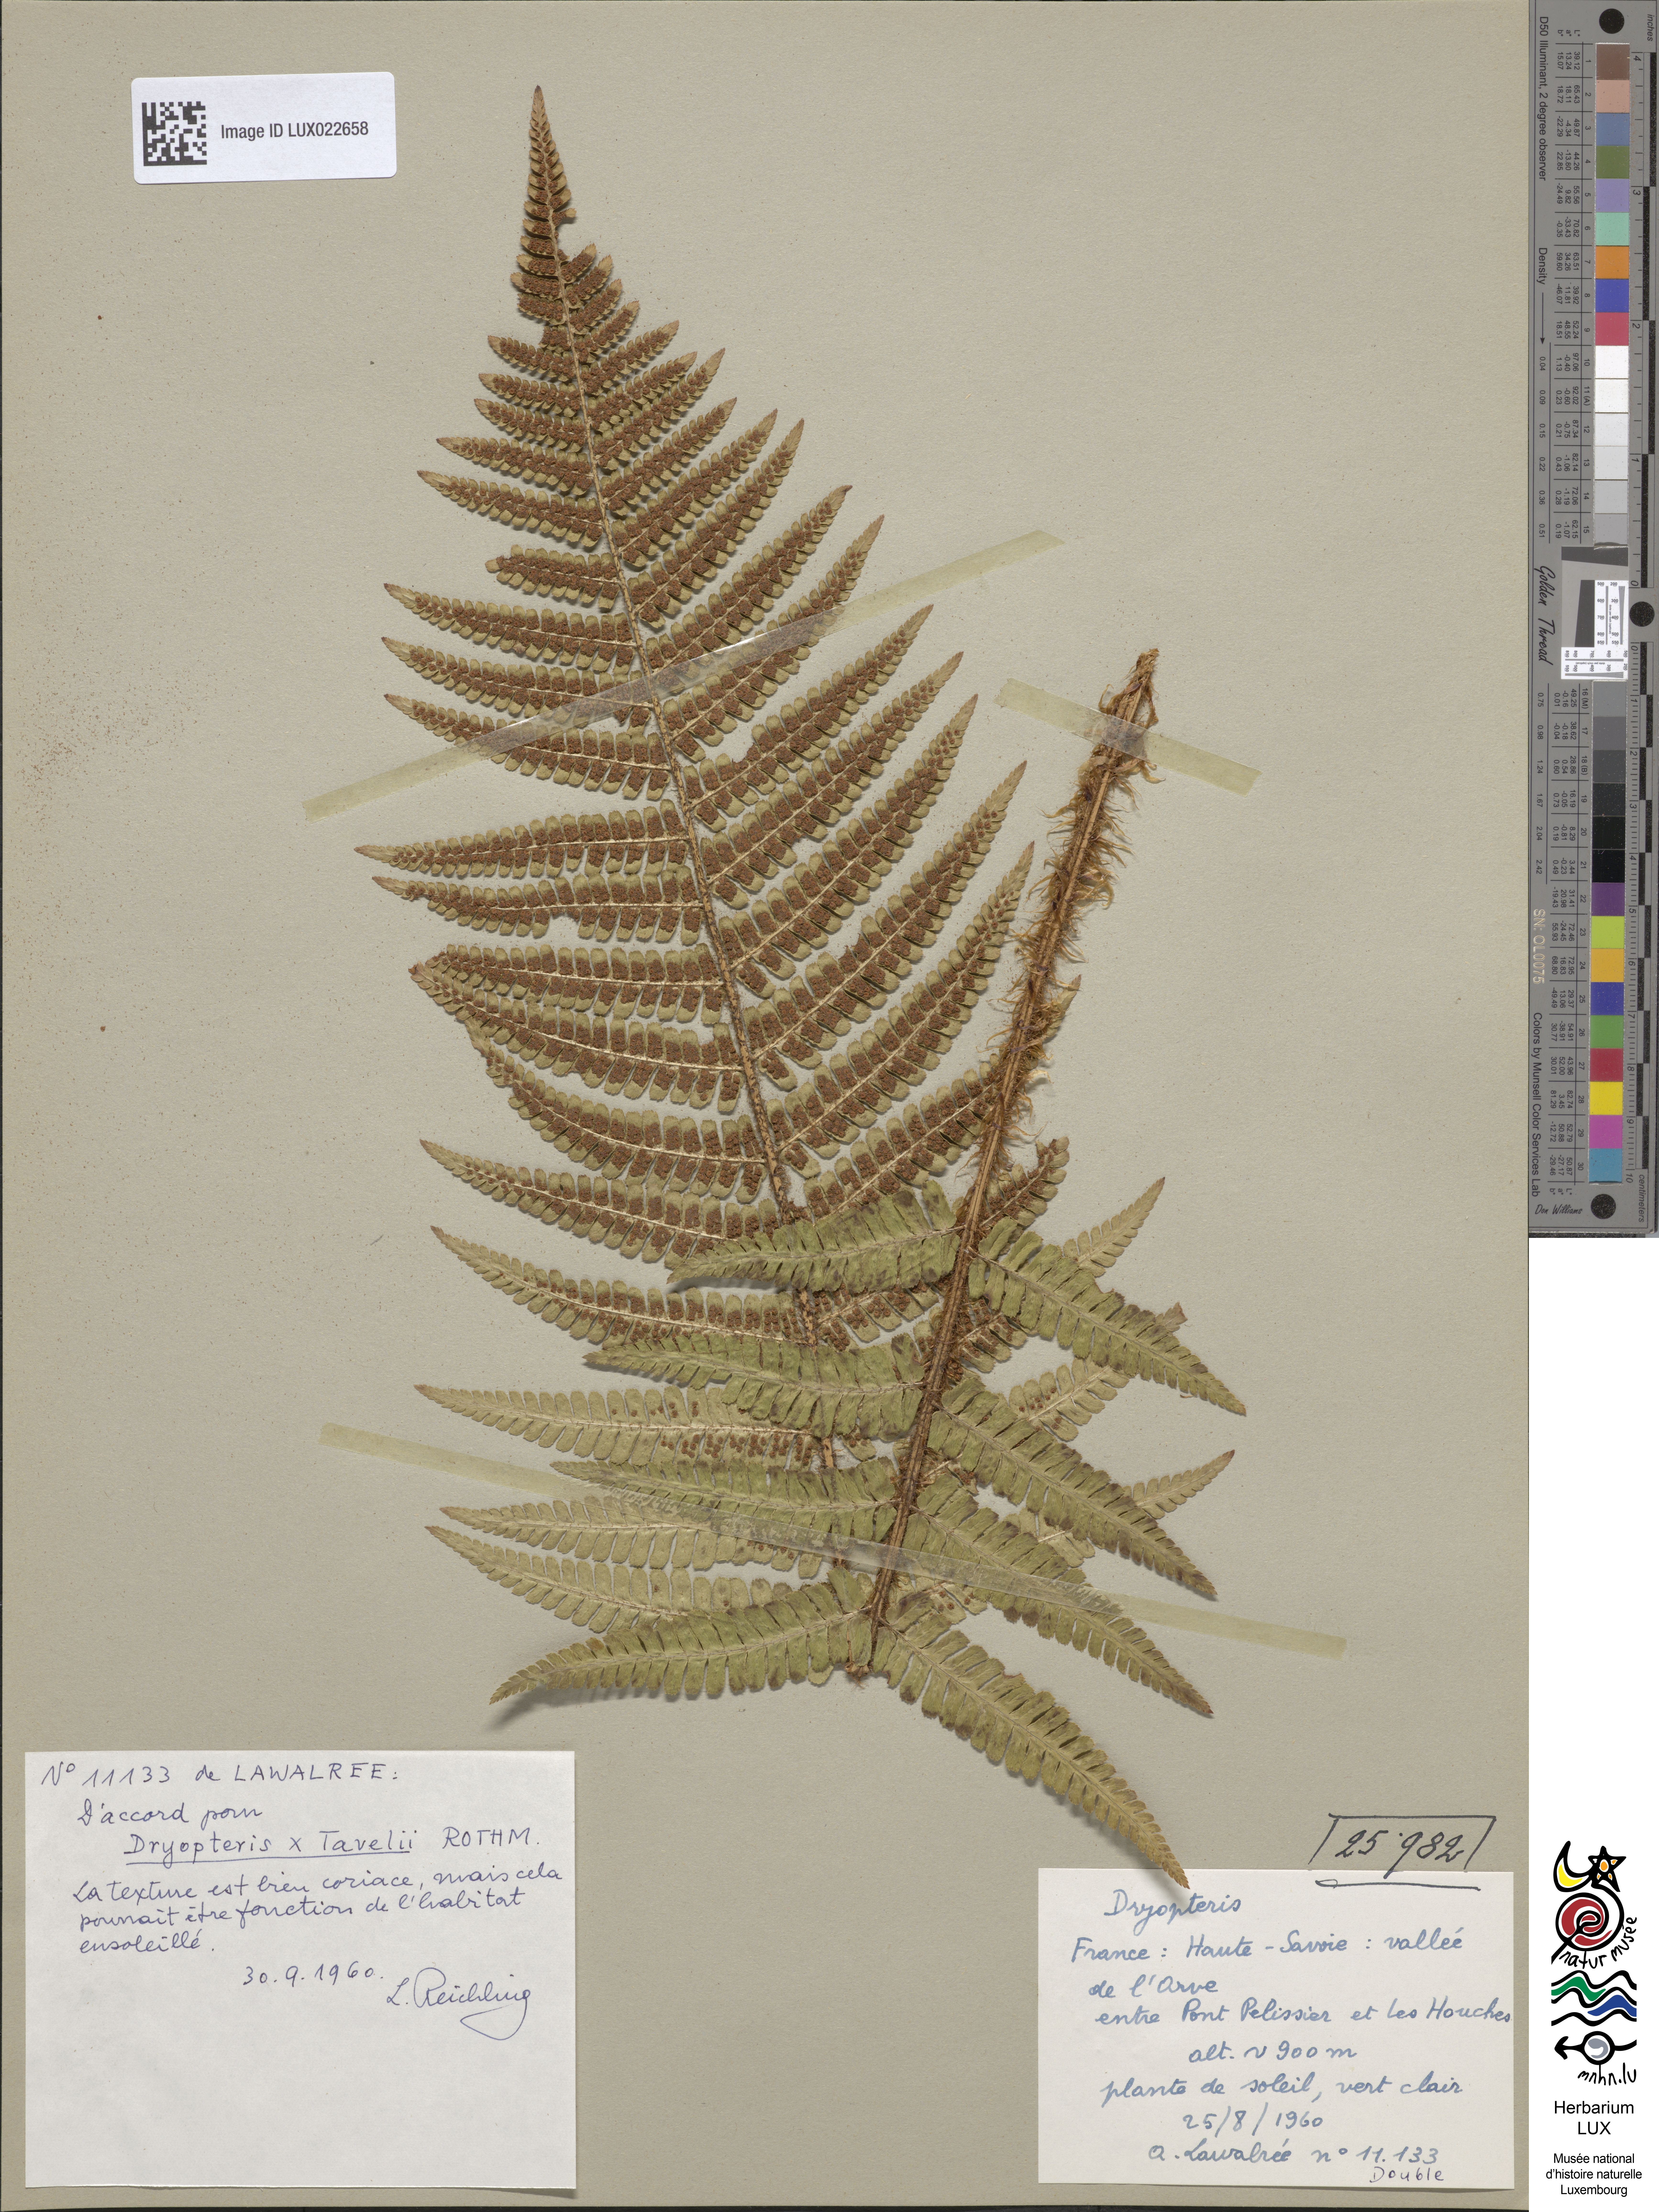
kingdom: Plantae
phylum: Tracheophyta
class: Polypodiopsida
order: Polypodiales
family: Dryopteridaceae
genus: Dryopteris
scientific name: Dryopteris borreri
